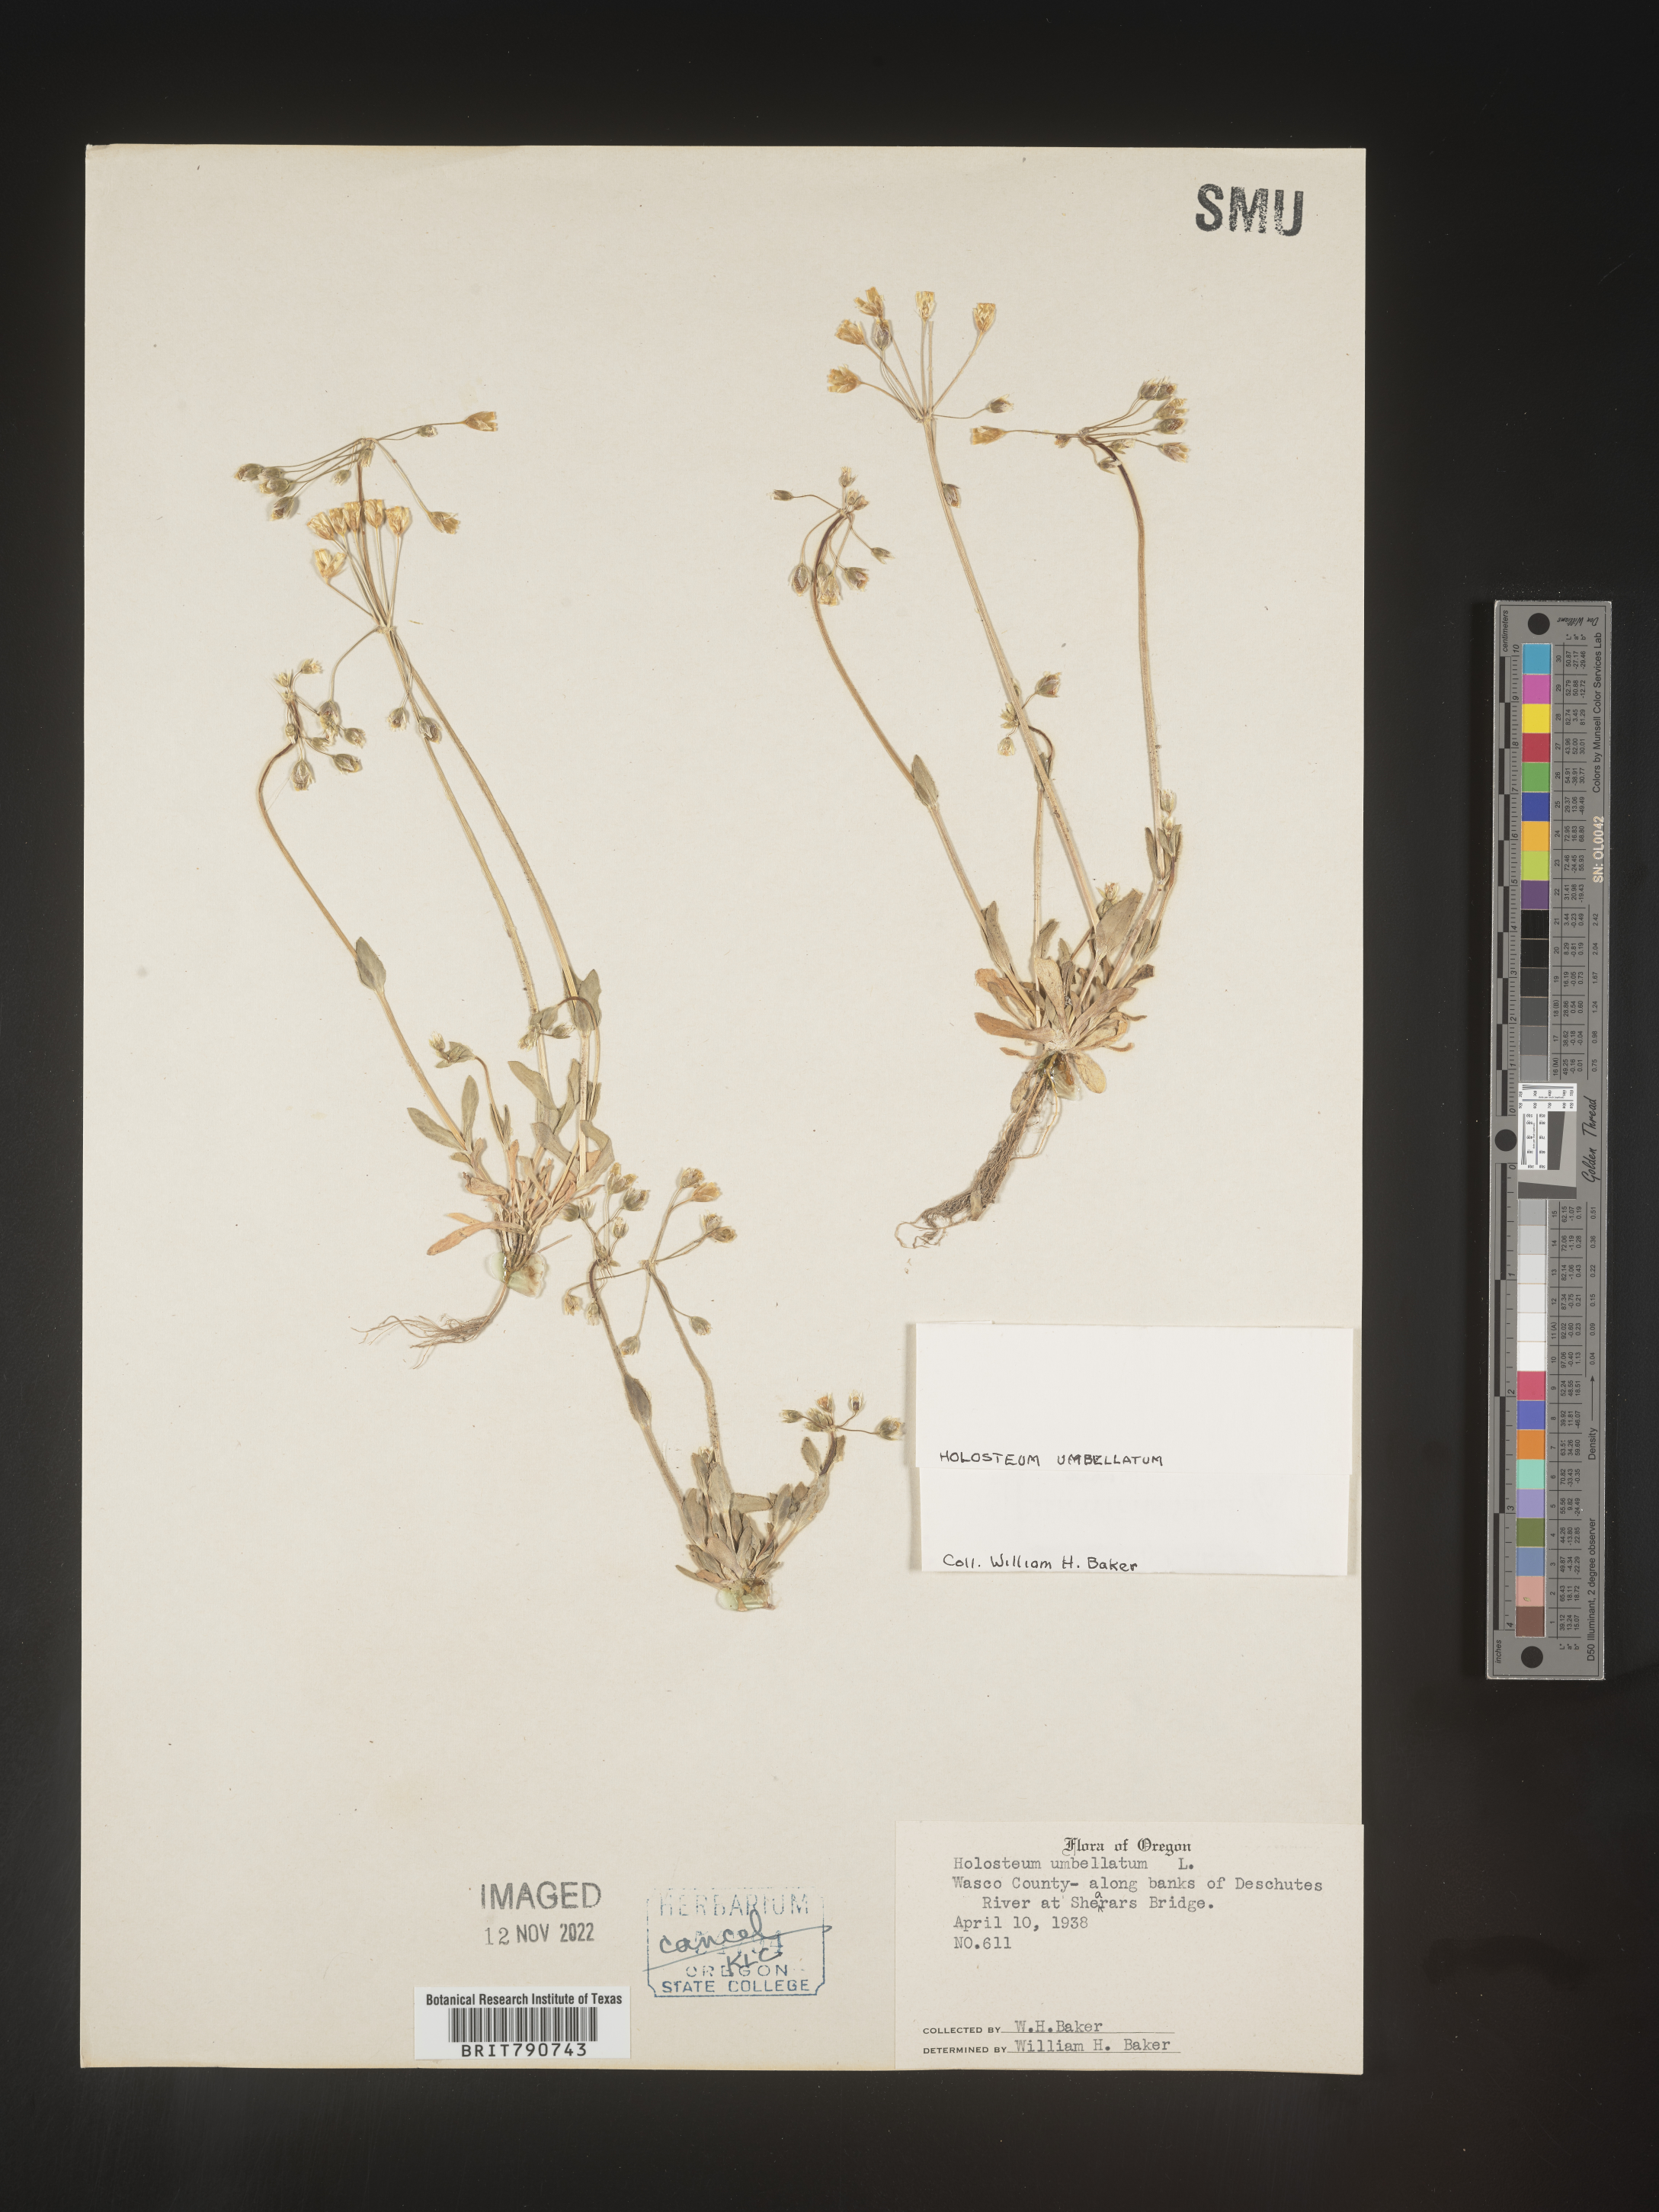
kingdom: Plantae
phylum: Tracheophyta
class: Magnoliopsida
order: Caryophyllales
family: Caryophyllaceae
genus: Holosteum
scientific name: Holosteum
